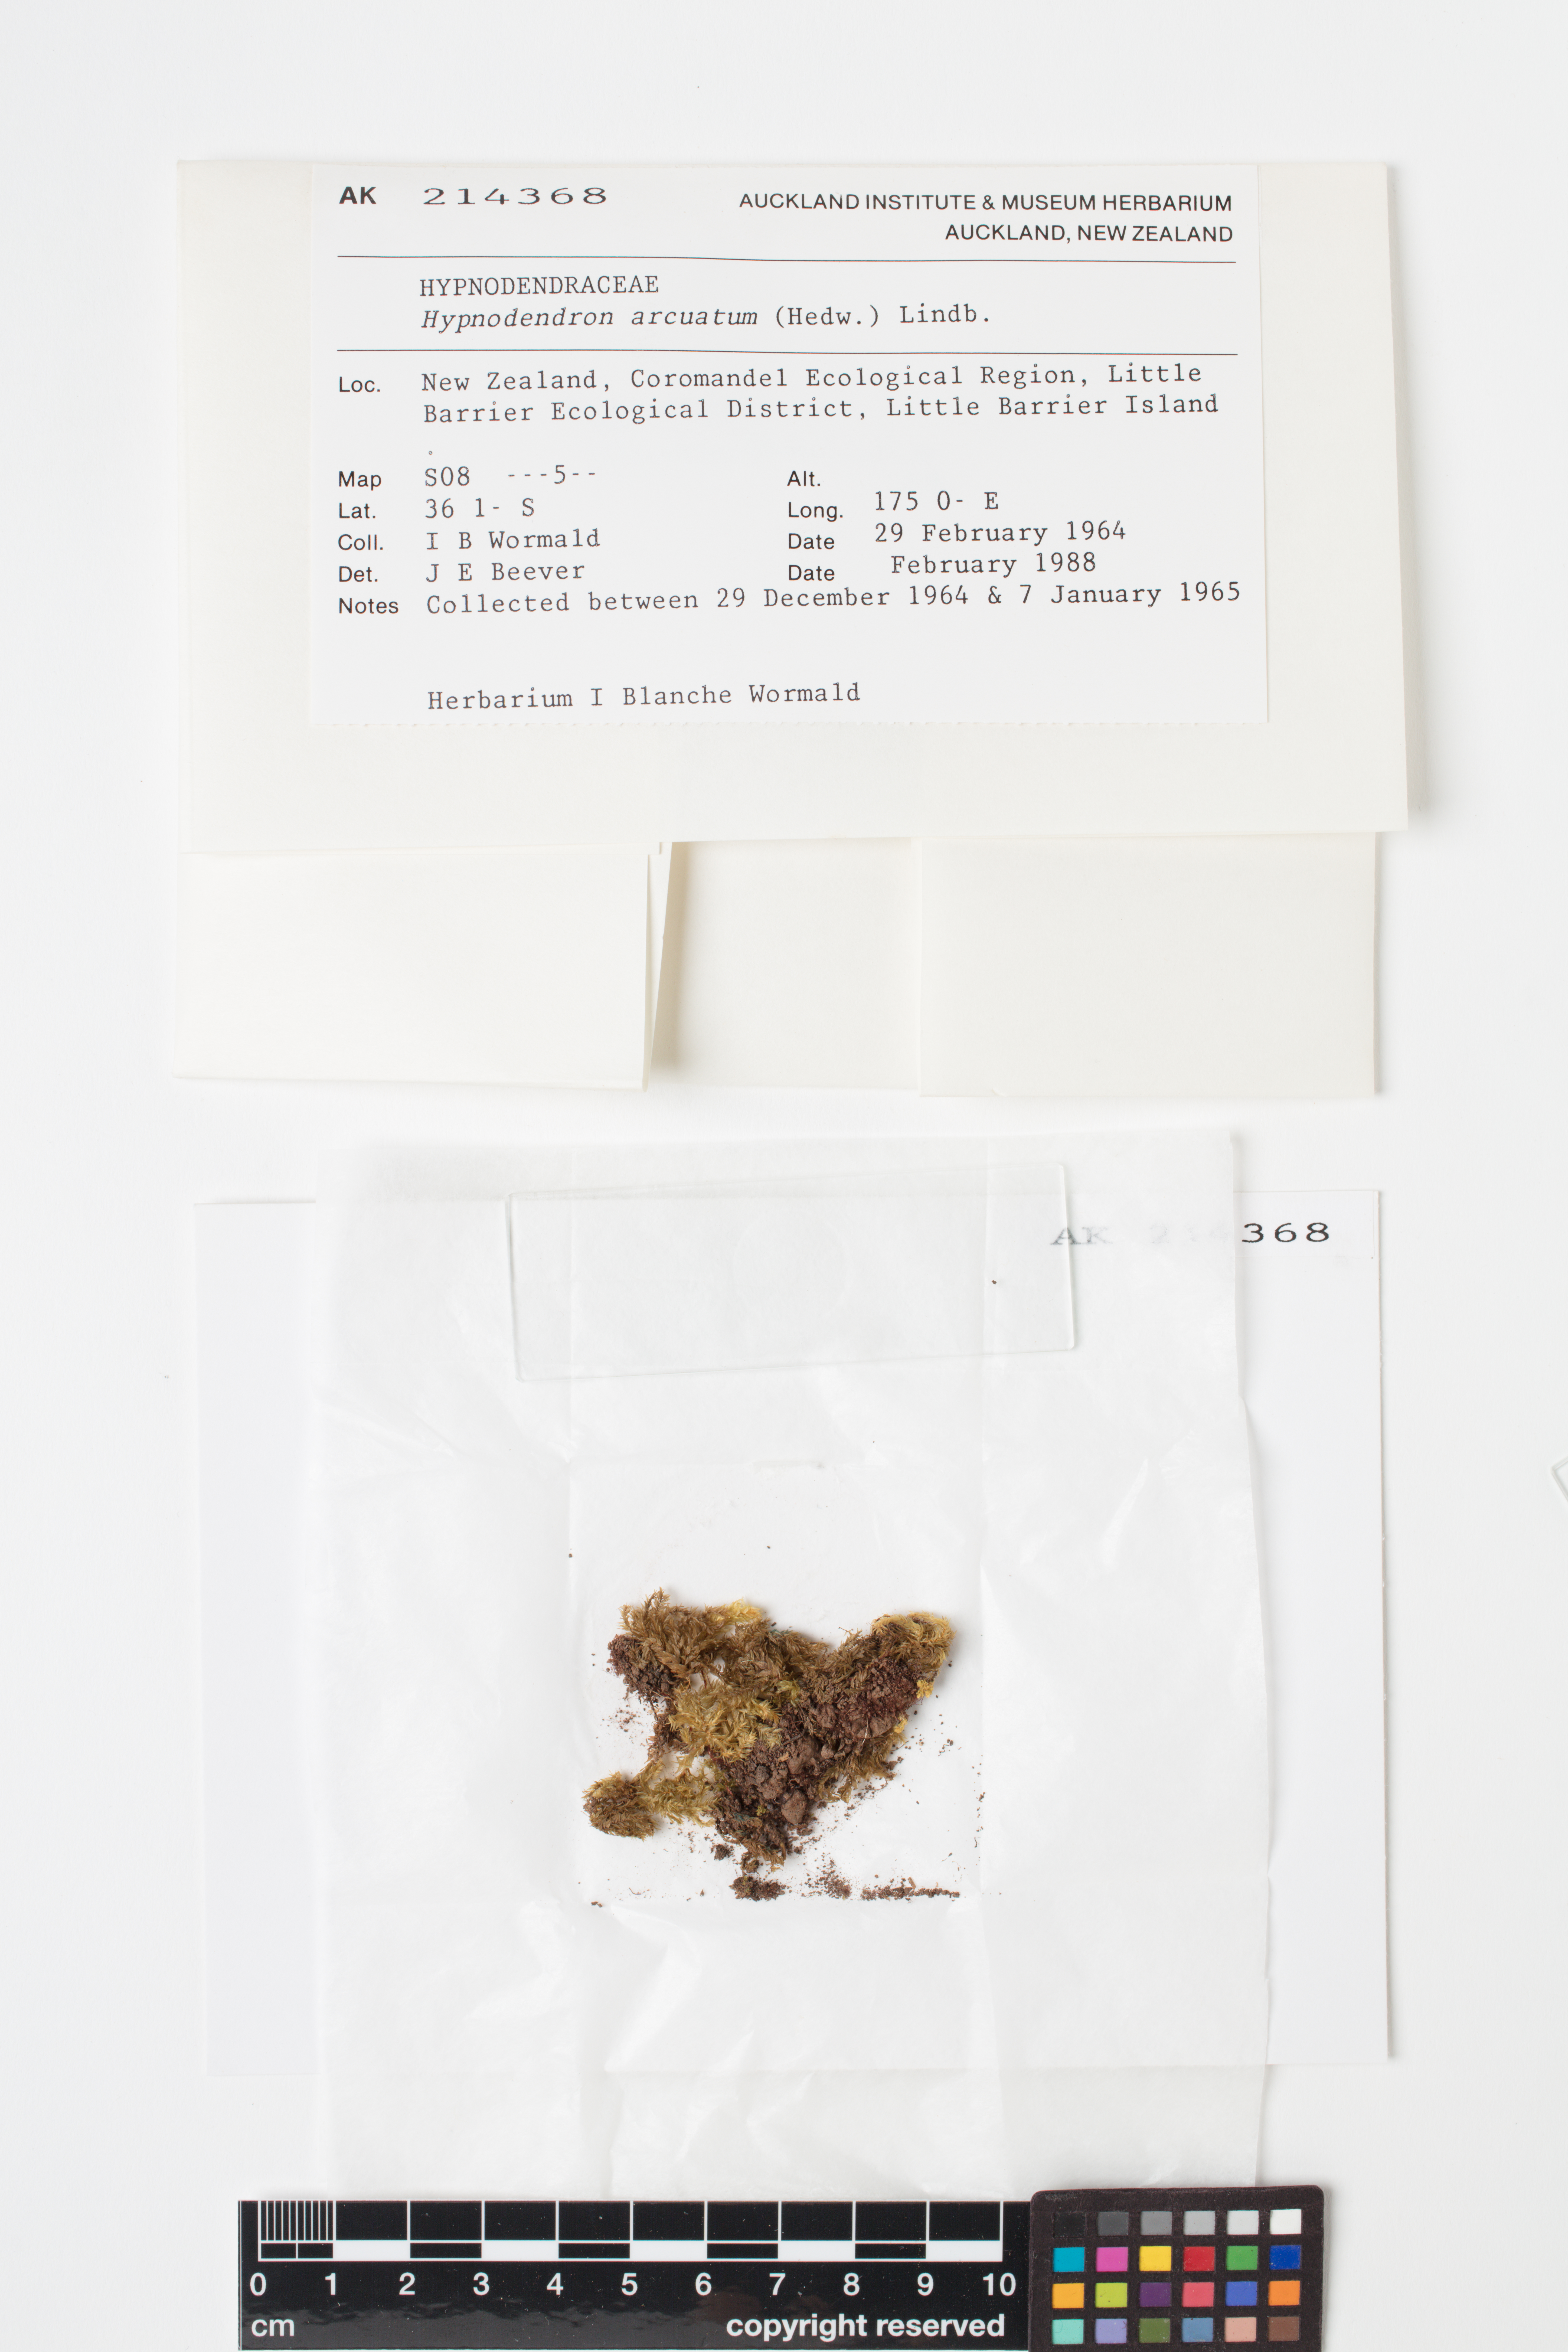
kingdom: Plantae
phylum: Bryophyta
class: Bryopsida
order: Hypnodendrales
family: Spiridentaceae
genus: Hypnodendron
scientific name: Hypnodendron arcuatum
